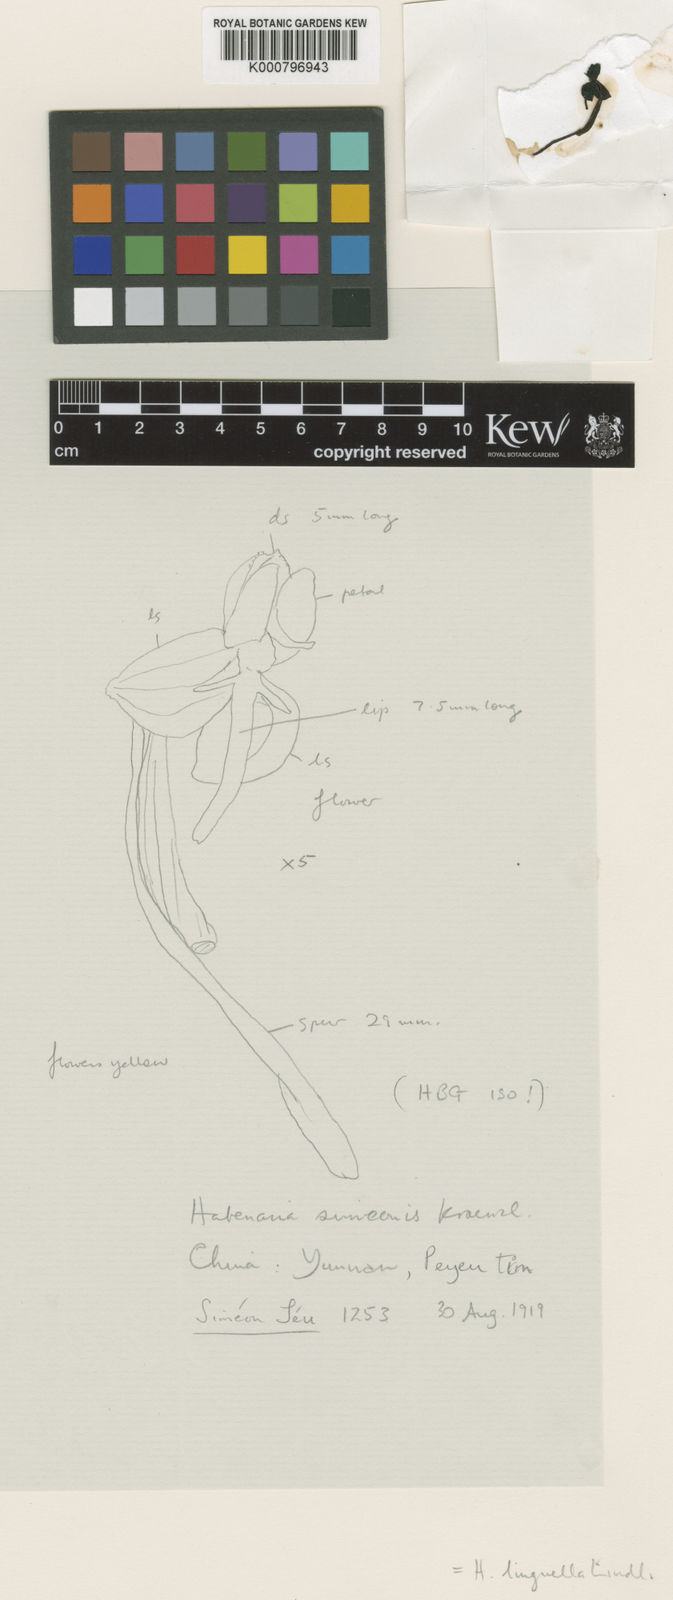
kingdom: Plantae
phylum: Tracheophyta
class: Liliopsida
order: Asparagales
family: Orchidaceae
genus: Habenaria
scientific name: Habenaria linguella
